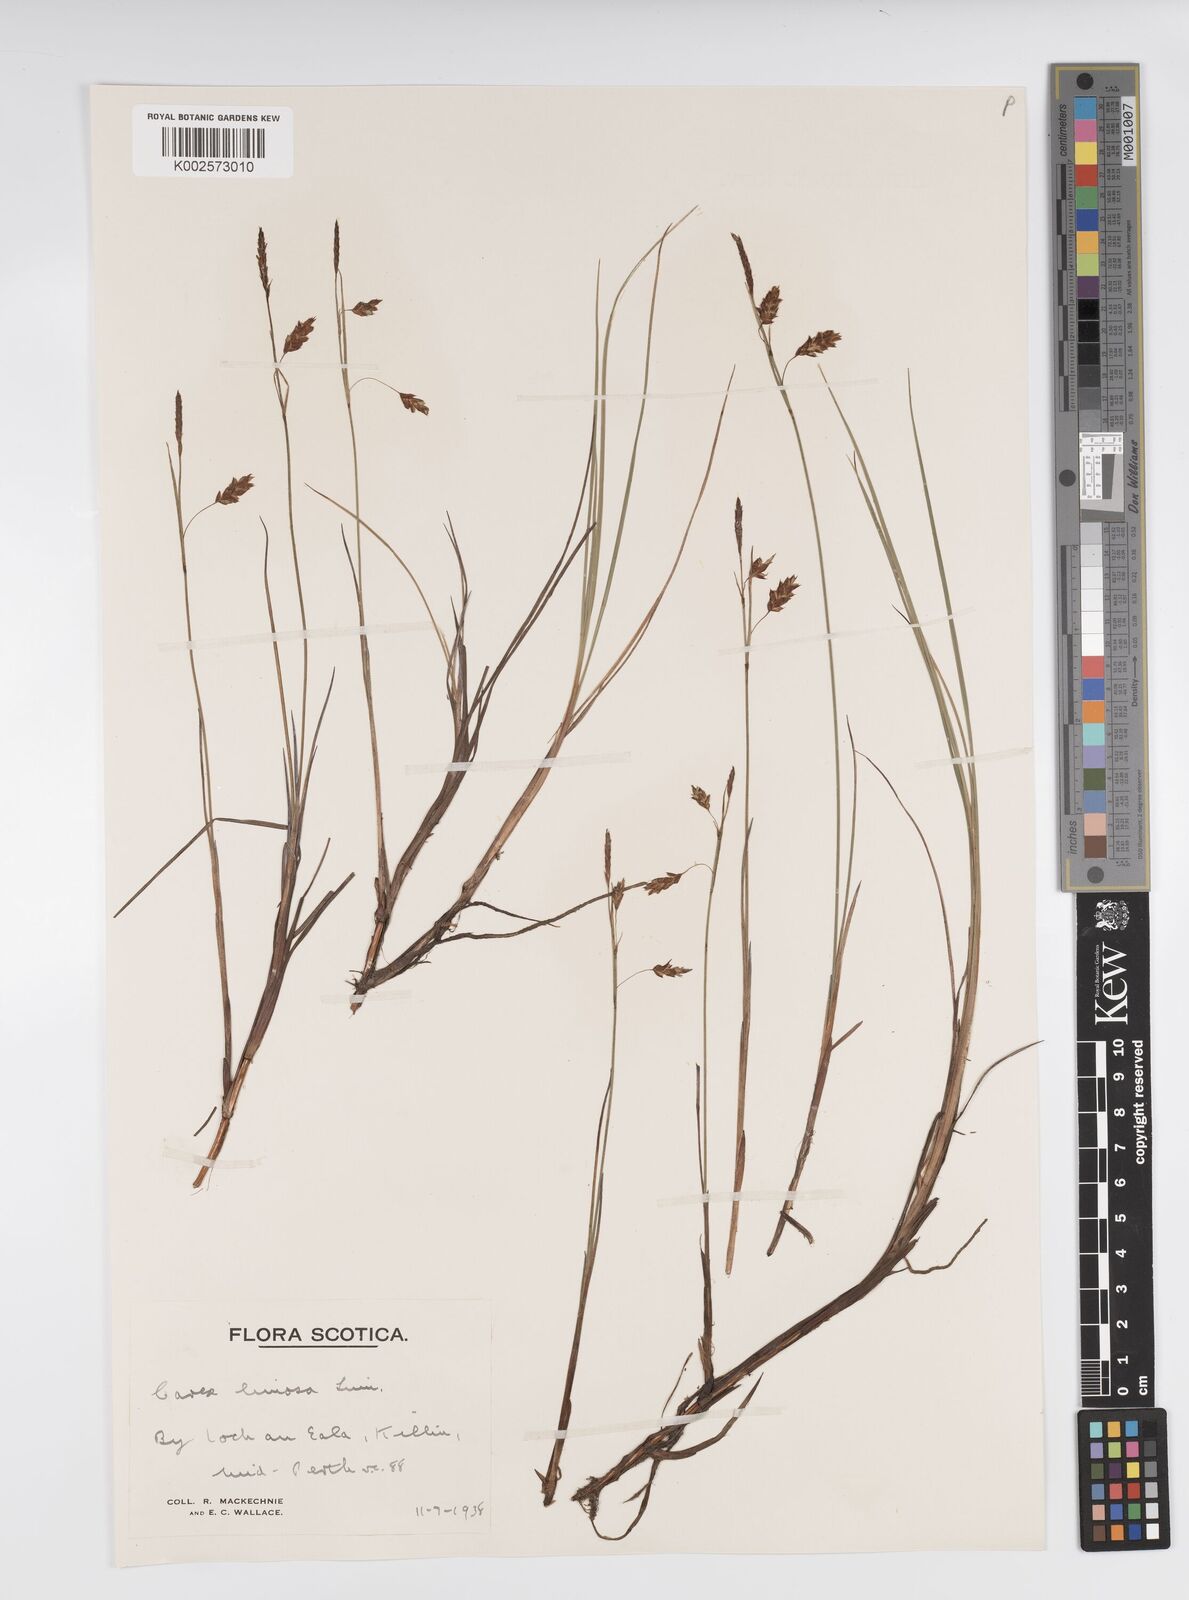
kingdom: Plantae
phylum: Tracheophyta
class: Liliopsida
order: Poales
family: Cyperaceae
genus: Carex
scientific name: Carex limosa
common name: Bog sedge
